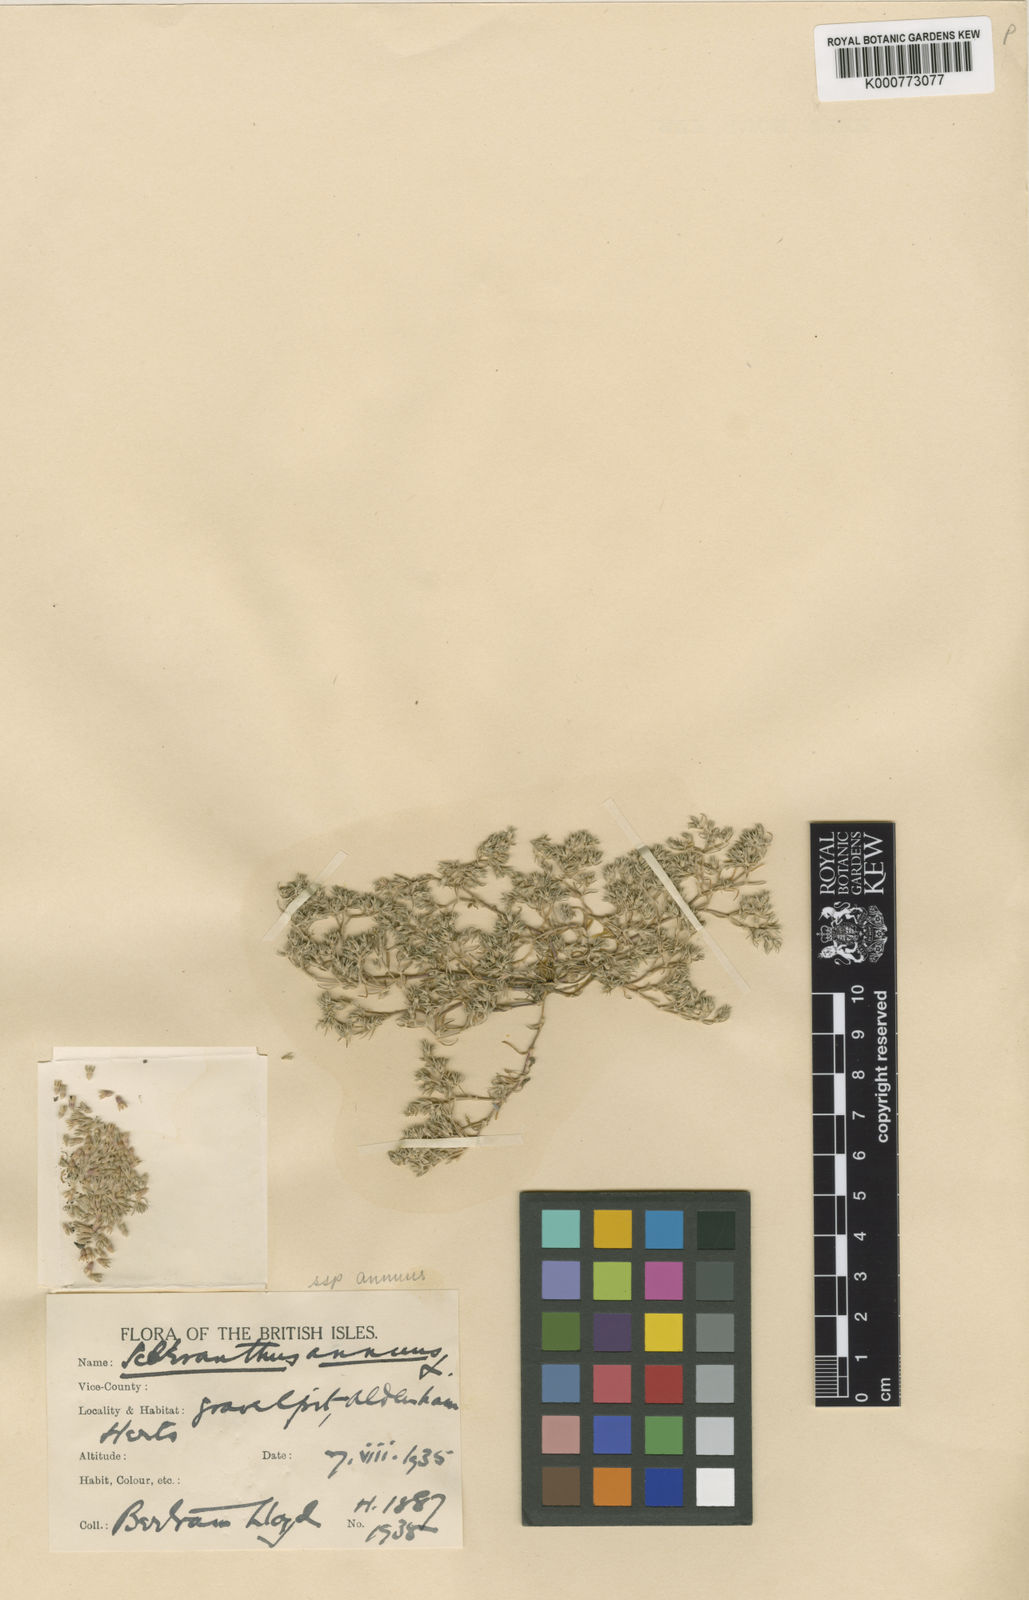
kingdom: Plantae
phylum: Tracheophyta
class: Magnoliopsida
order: Caryophyllales
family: Caryophyllaceae
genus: Scleranthus
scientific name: Scleranthus annuus
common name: Annual knawel
